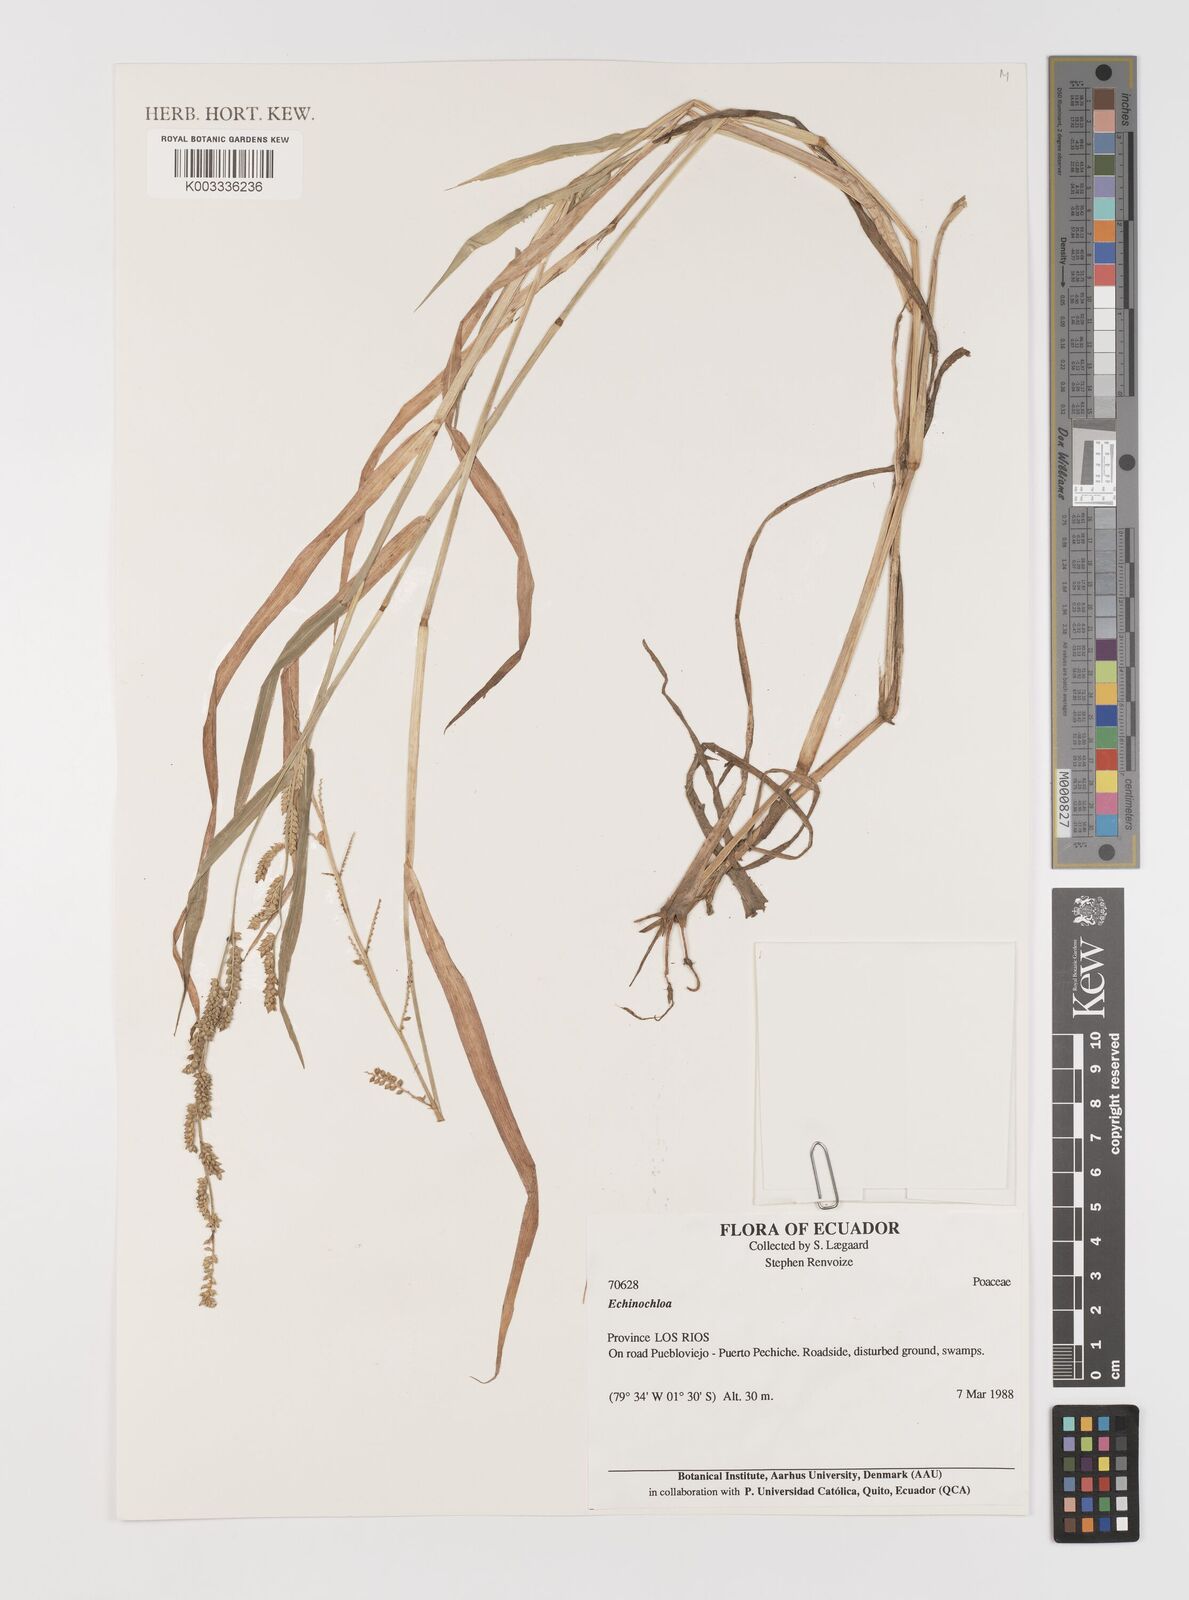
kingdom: Plantae
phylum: Tracheophyta
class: Liliopsida
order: Poales
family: Poaceae
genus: Echinochloa
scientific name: Echinochloa colonum
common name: Jungle rice
